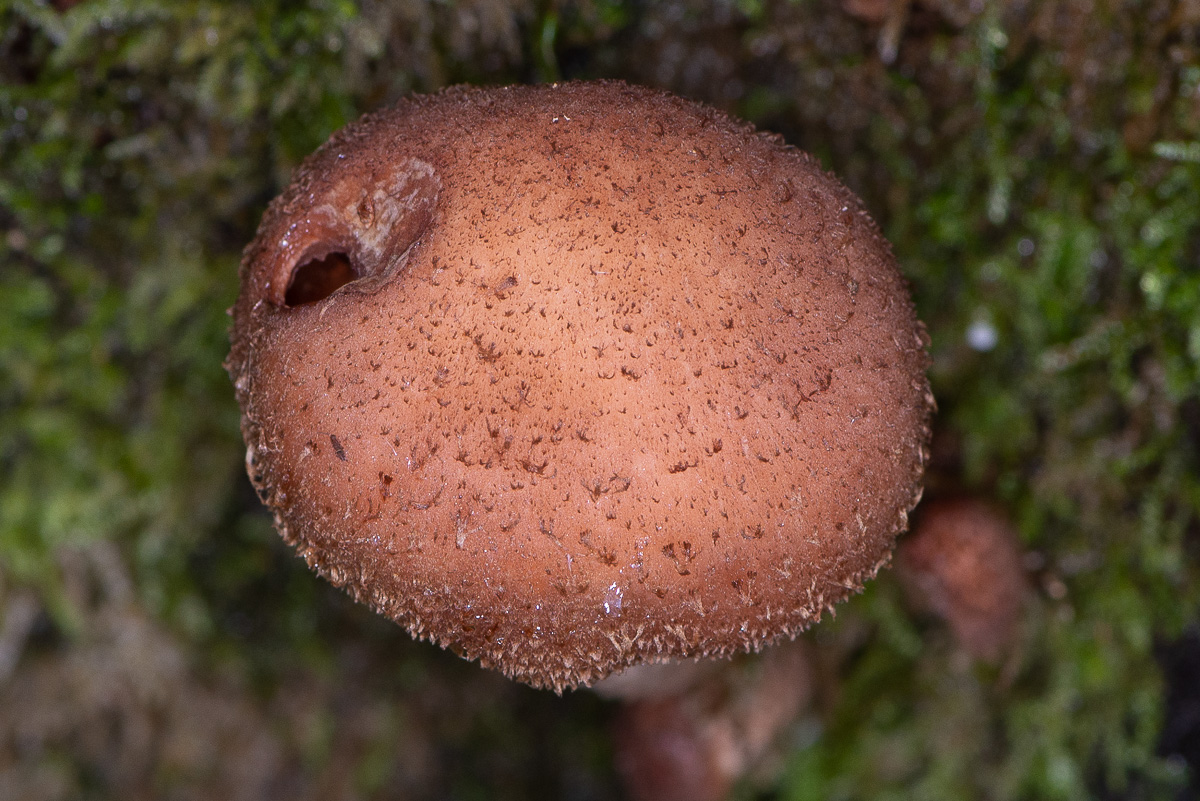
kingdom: Fungi
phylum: Basidiomycota
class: Agaricomycetes
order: Agaricales
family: Physalacriaceae
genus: Armillaria
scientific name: Armillaria
